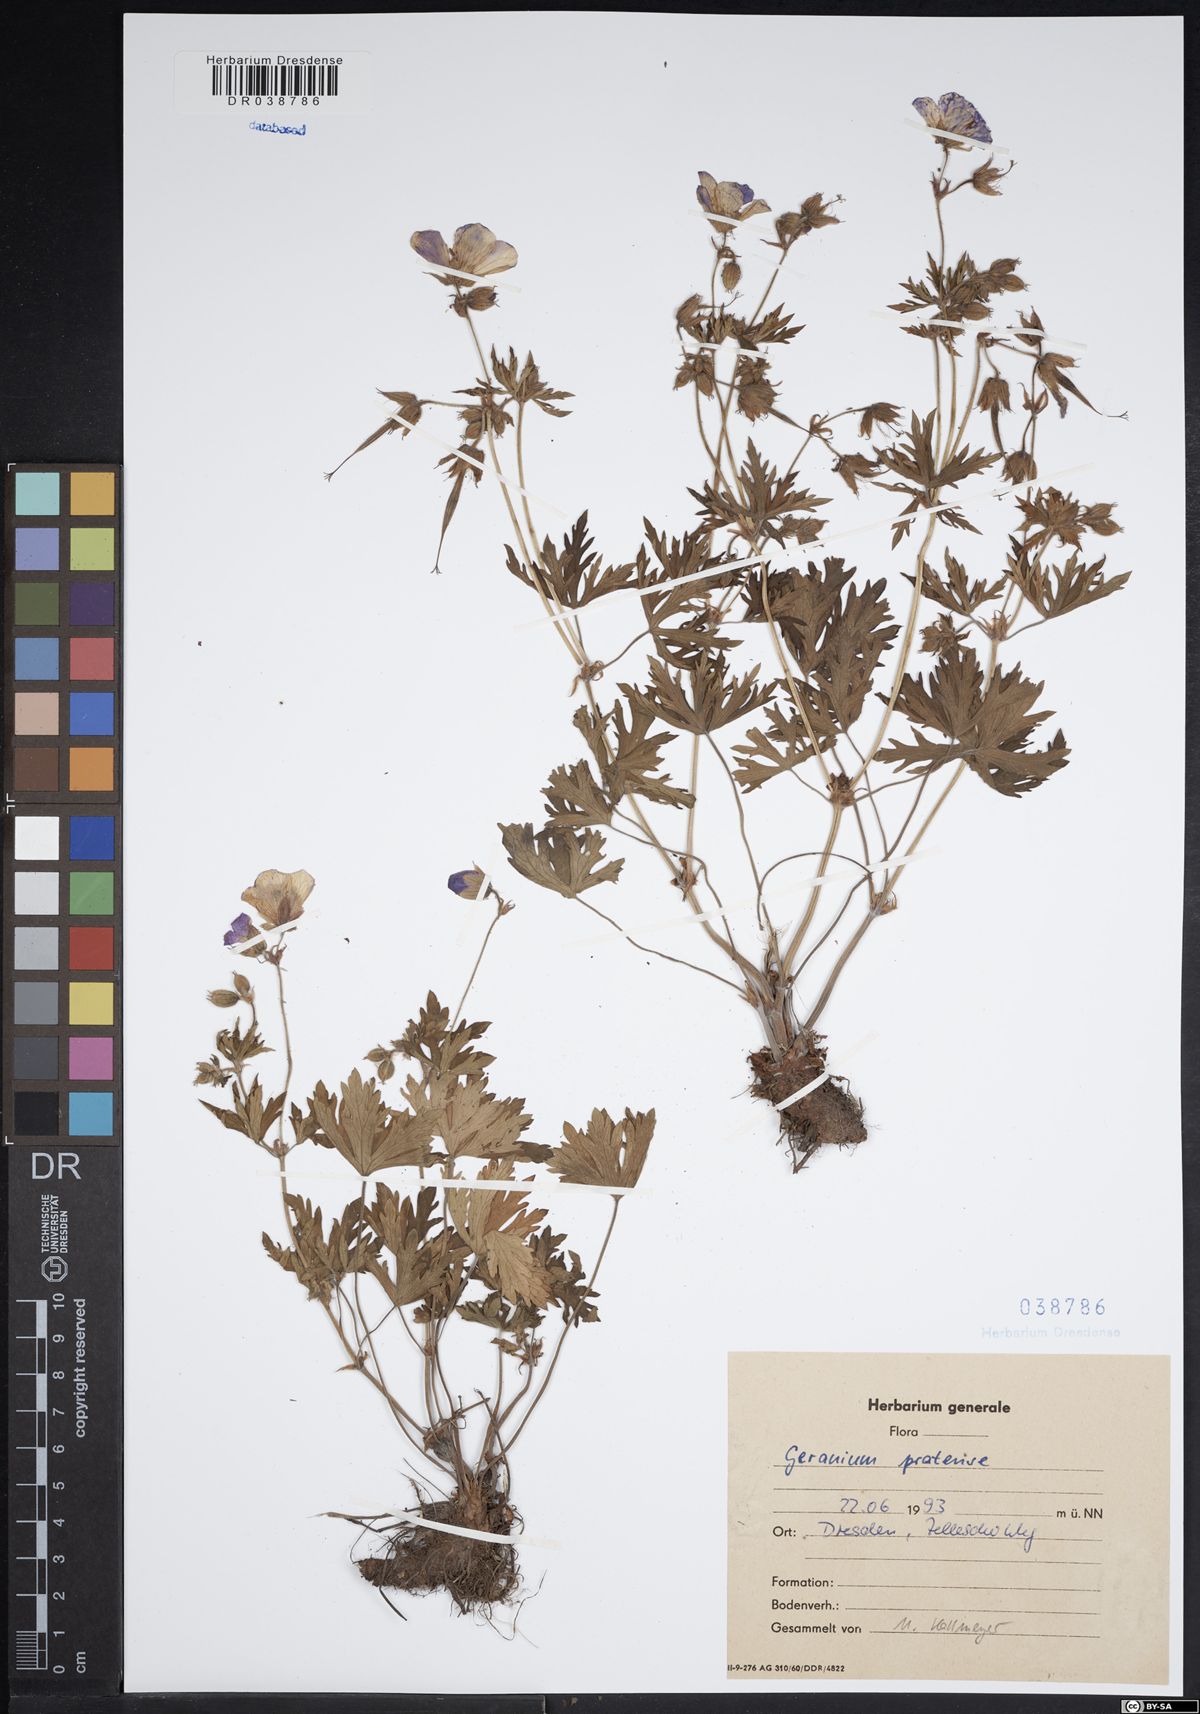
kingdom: Plantae
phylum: Tracheophyta
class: Magnoliopsida
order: Geraniales
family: Geraniaceae
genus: Geranium
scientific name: Geranium pratense
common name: Meadow crane's-bill
